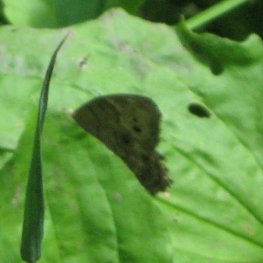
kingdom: Animalia
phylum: Arthropoda
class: Insecta
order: Lepidoptera
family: Nymphalidae
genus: Lethe
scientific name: Lethe anthedon
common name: Northern Pearly-Eye
